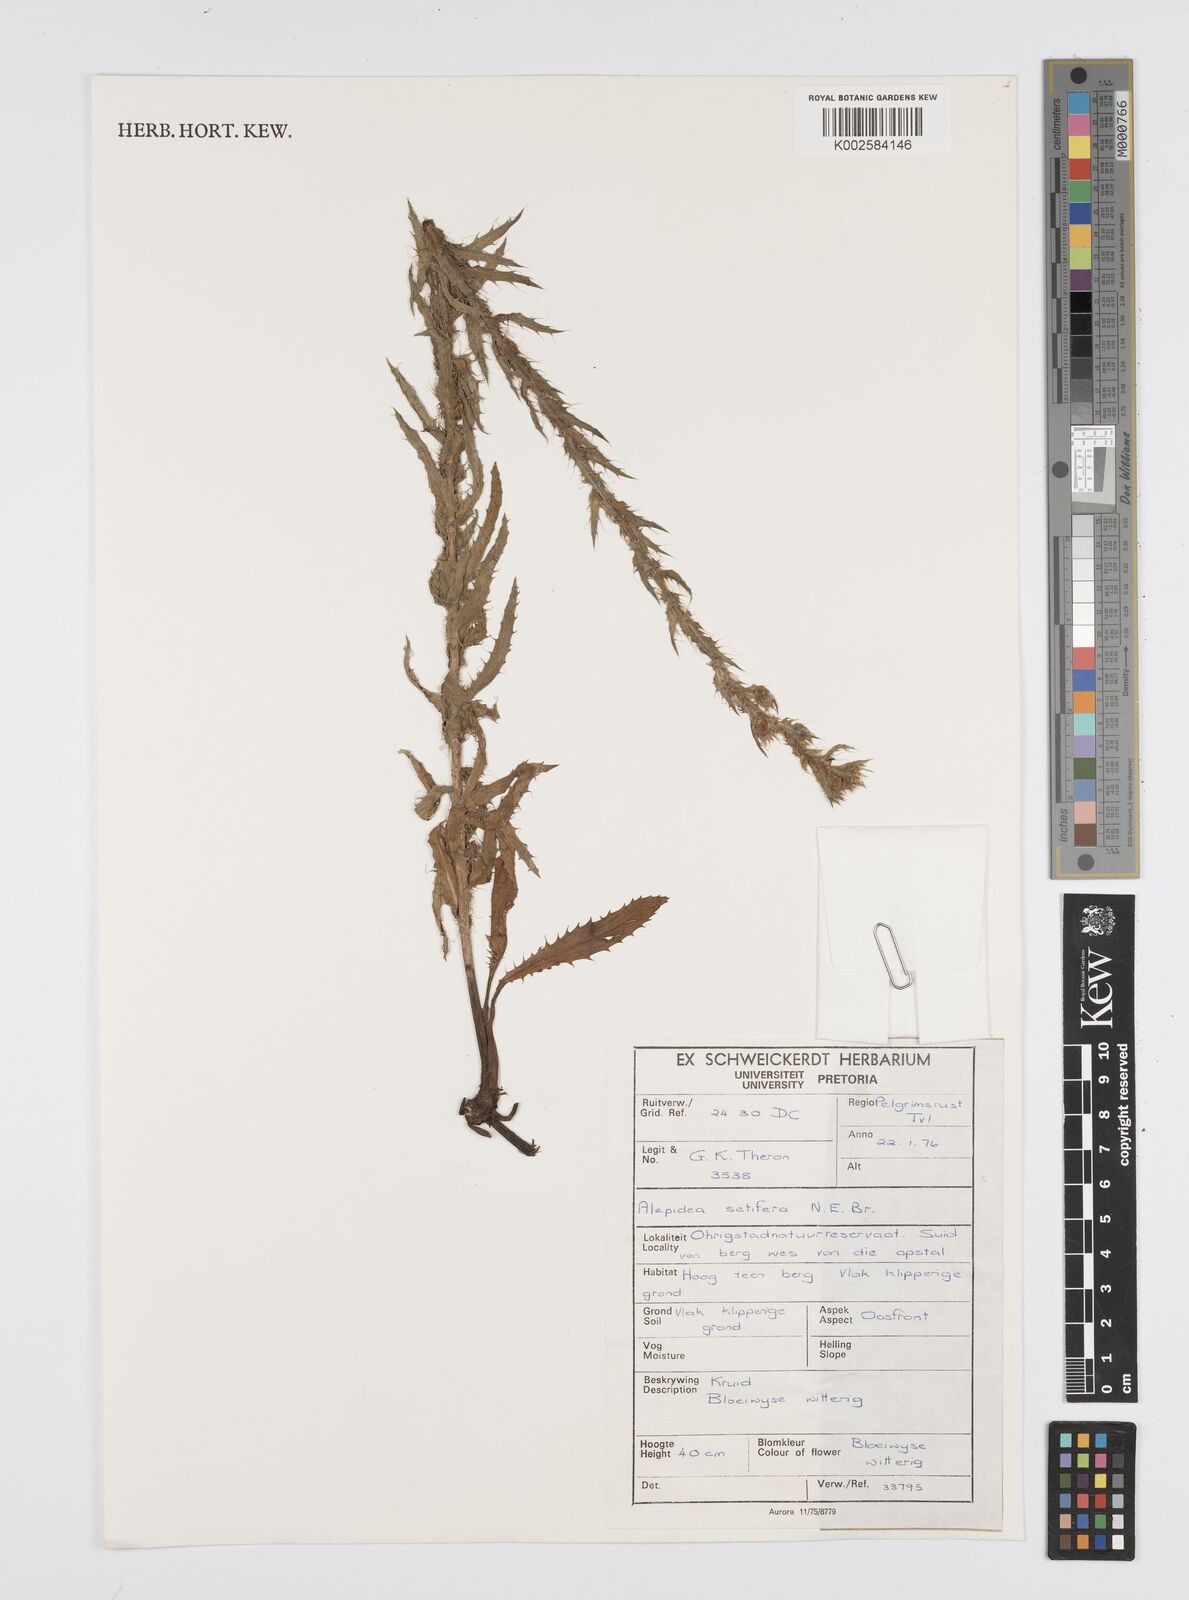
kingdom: Plantae
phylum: Tracheophyta
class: Magnoliopsida
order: Apiales
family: Apiaceae
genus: Alepidea
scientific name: Alepidea setifera
